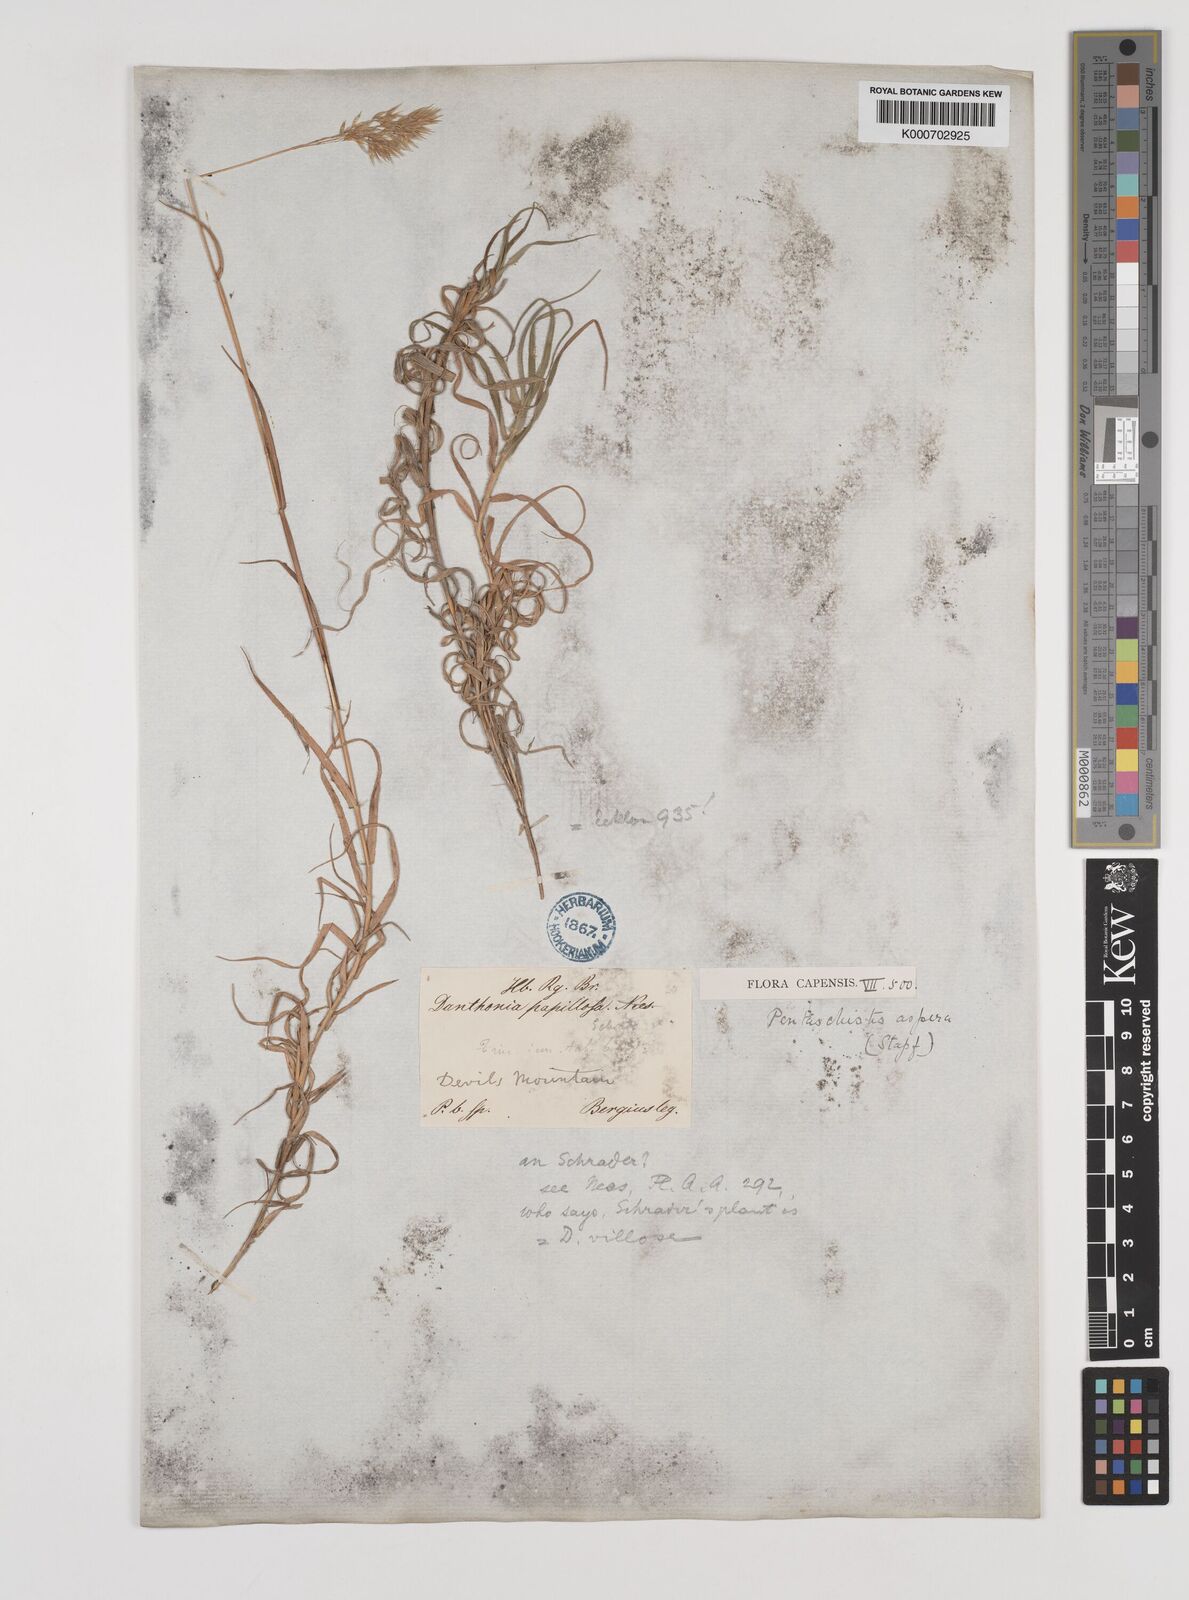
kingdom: Plantae
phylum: Tracheophyta
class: Liliopsida
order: Poales
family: Poaceae
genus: Pentameris
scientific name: Pentameris aspera
